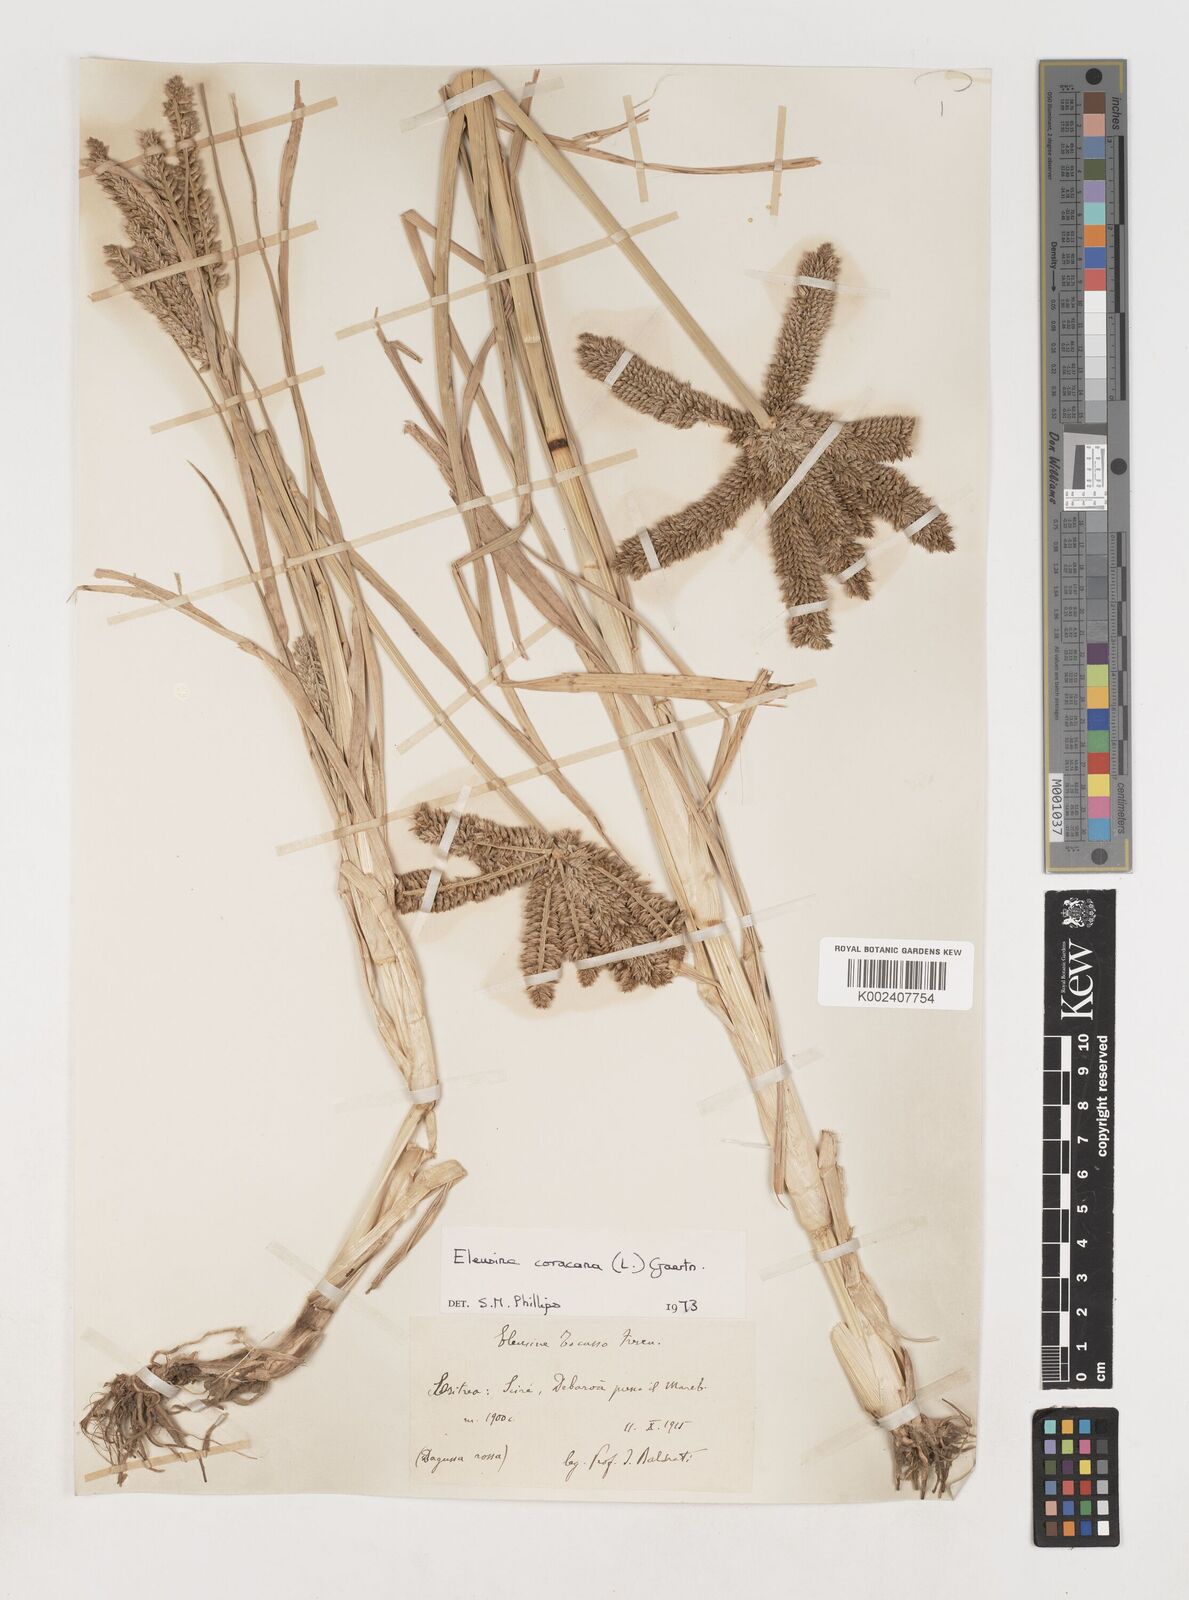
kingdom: Plantae
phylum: Tracheophyta
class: Liliopsida
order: Poales
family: Poaceae
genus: Eleusine
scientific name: Eleusine coracana
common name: Finger millet
